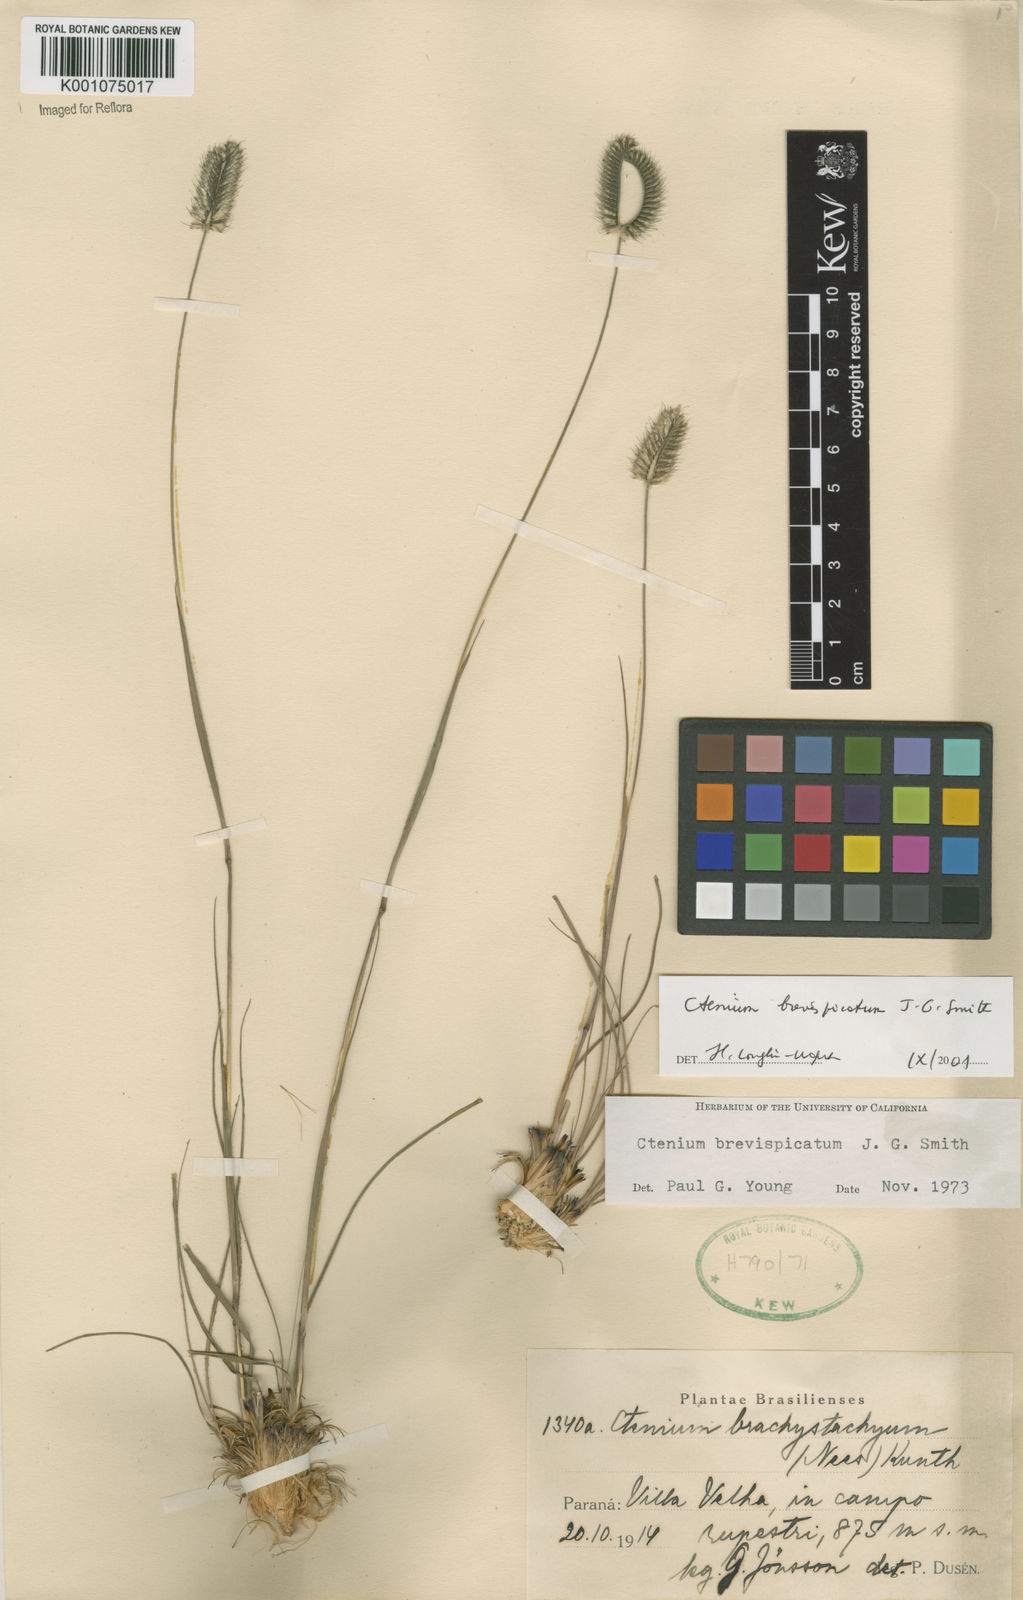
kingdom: Plantae
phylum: Tracheophyta
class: Liliopsida
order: Poales
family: Poaceae
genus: Ctenium
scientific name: Ctenium brevispicatum
